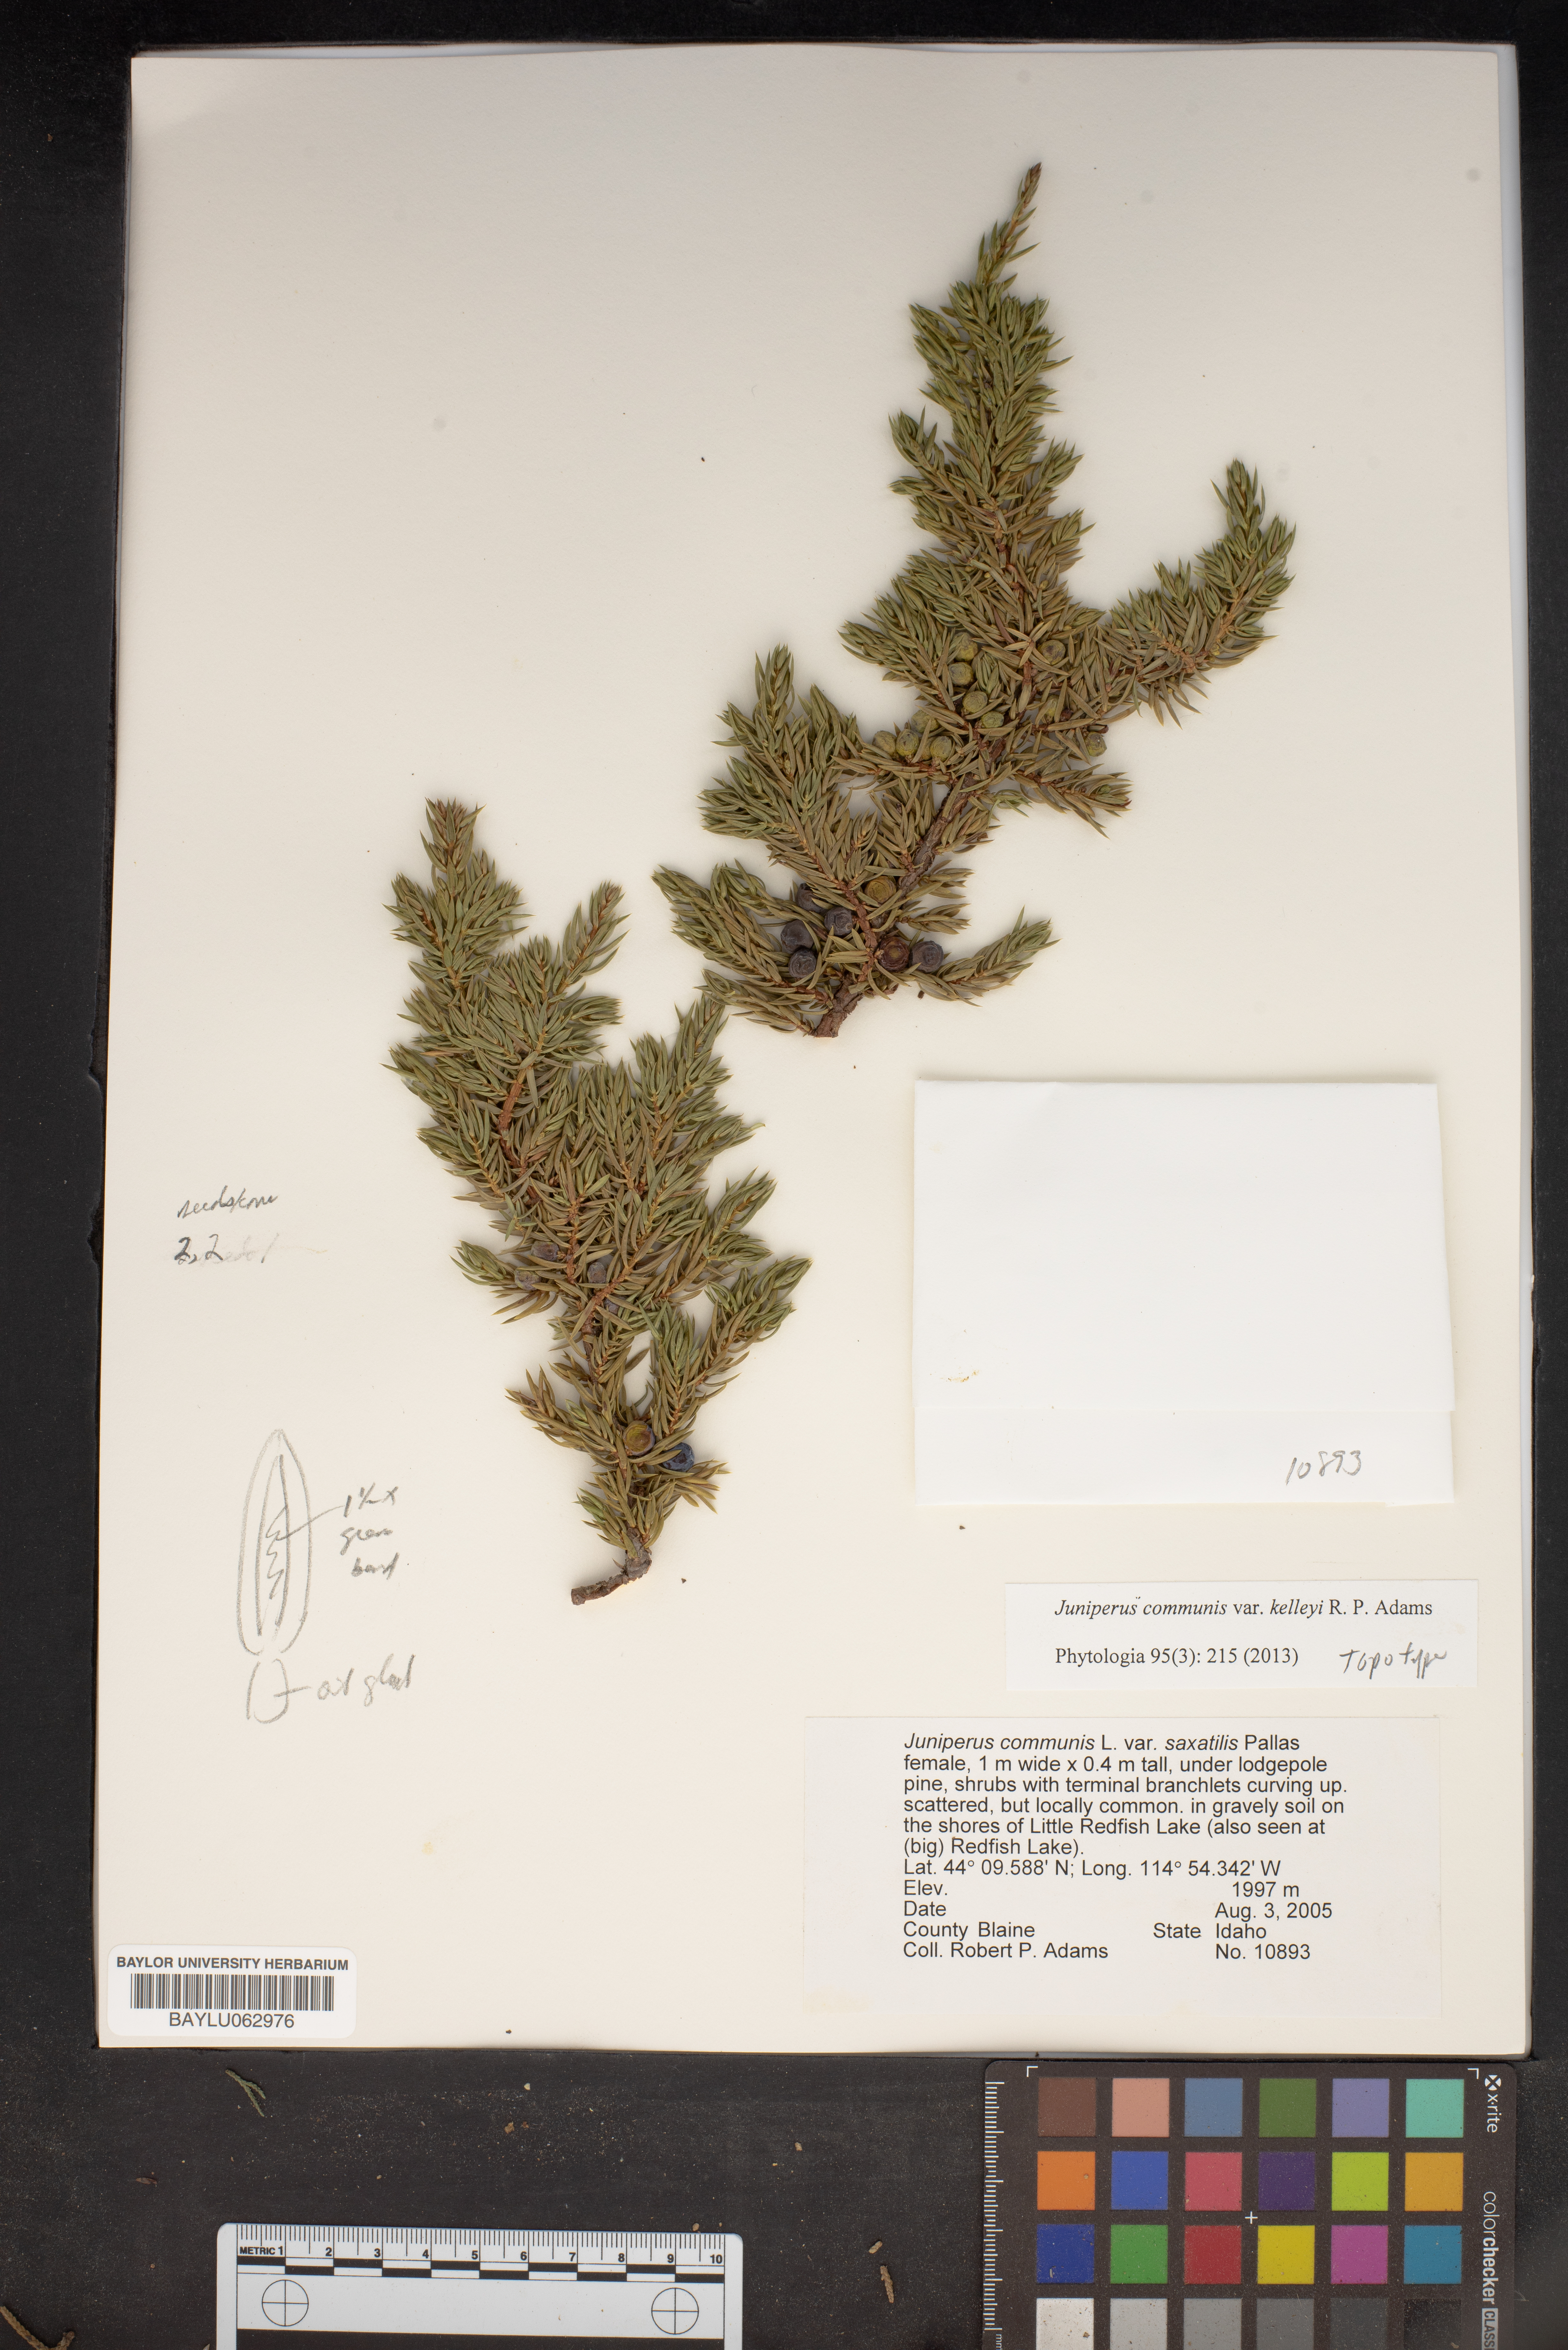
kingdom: Plantae
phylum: Tracheophyta
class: Pinopsida
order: Pinales
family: Cupressaceae
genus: Juniperus
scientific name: Juniperus communis
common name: Common juniper
